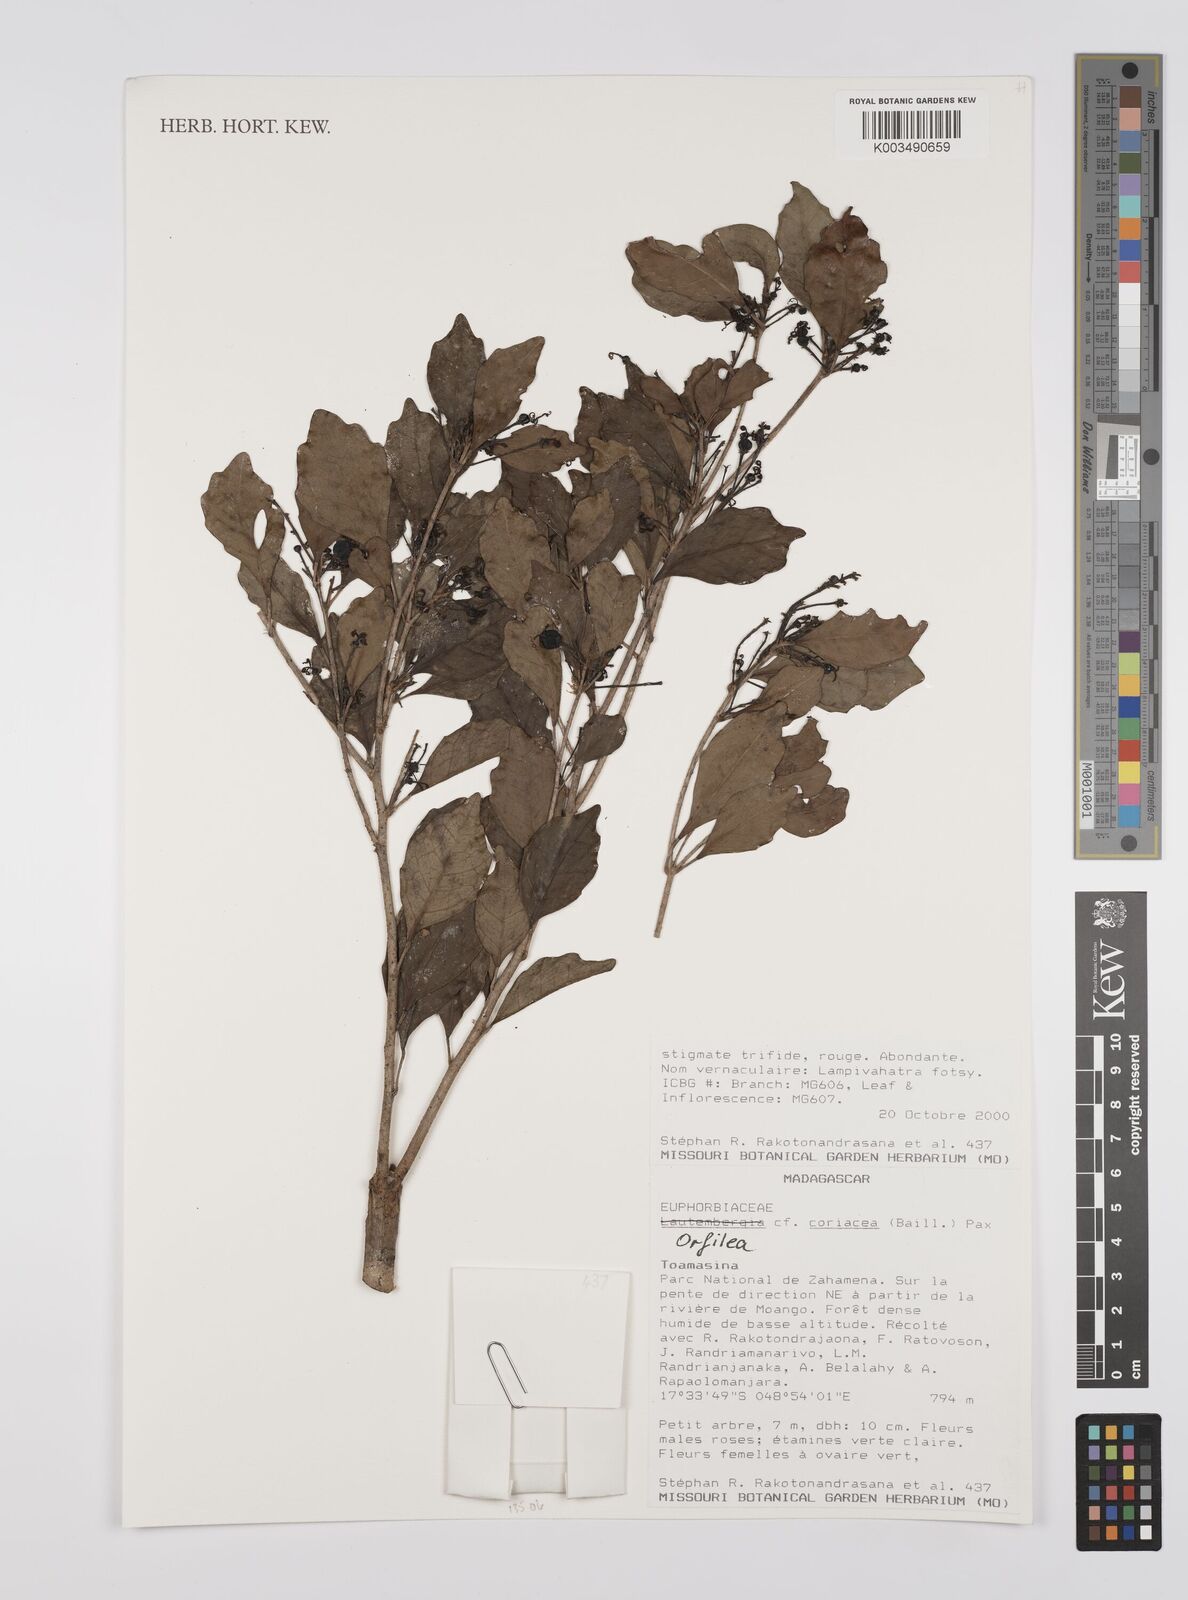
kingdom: Plantae
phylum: Tracheophyta
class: Magnoliopsida
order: Malpighiales
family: Euphorbiaceae
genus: Orfilea
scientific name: Orfilea coriacea
